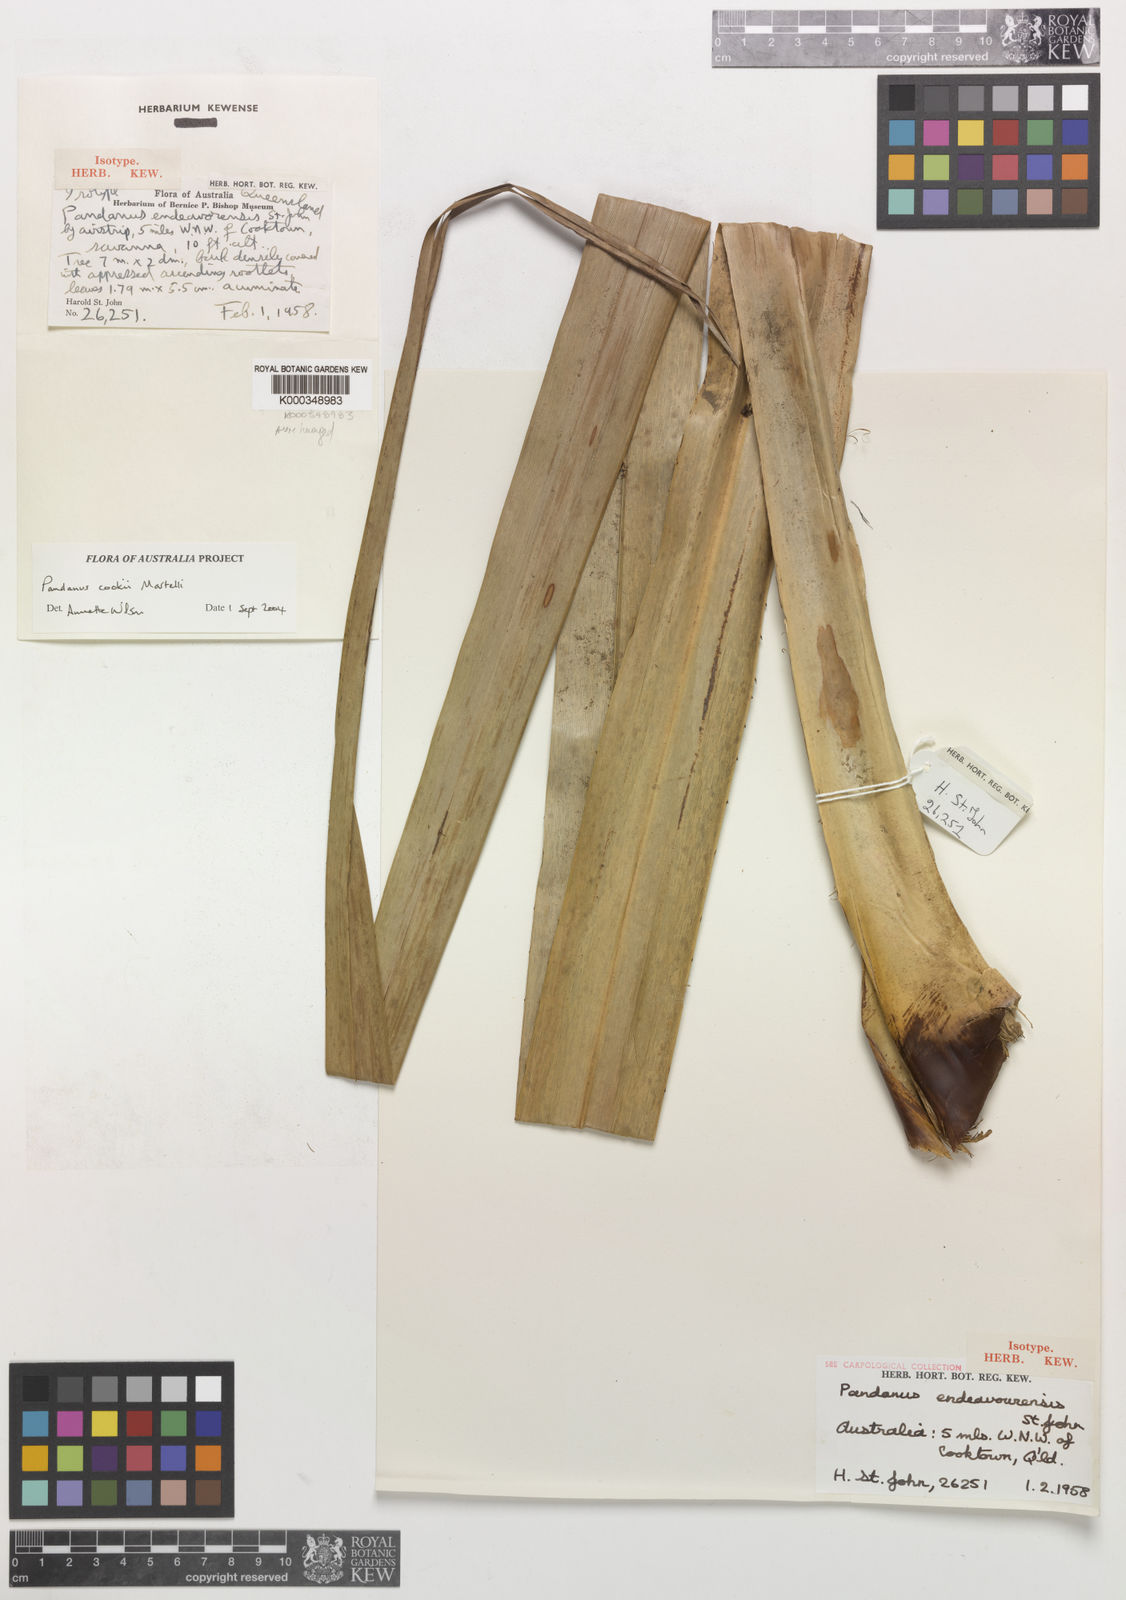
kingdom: Plantae
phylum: Tracheophyta
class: Liliopsida
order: Pandanales
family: Pandanaceae
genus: Pandanus
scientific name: Pandanus cookii
